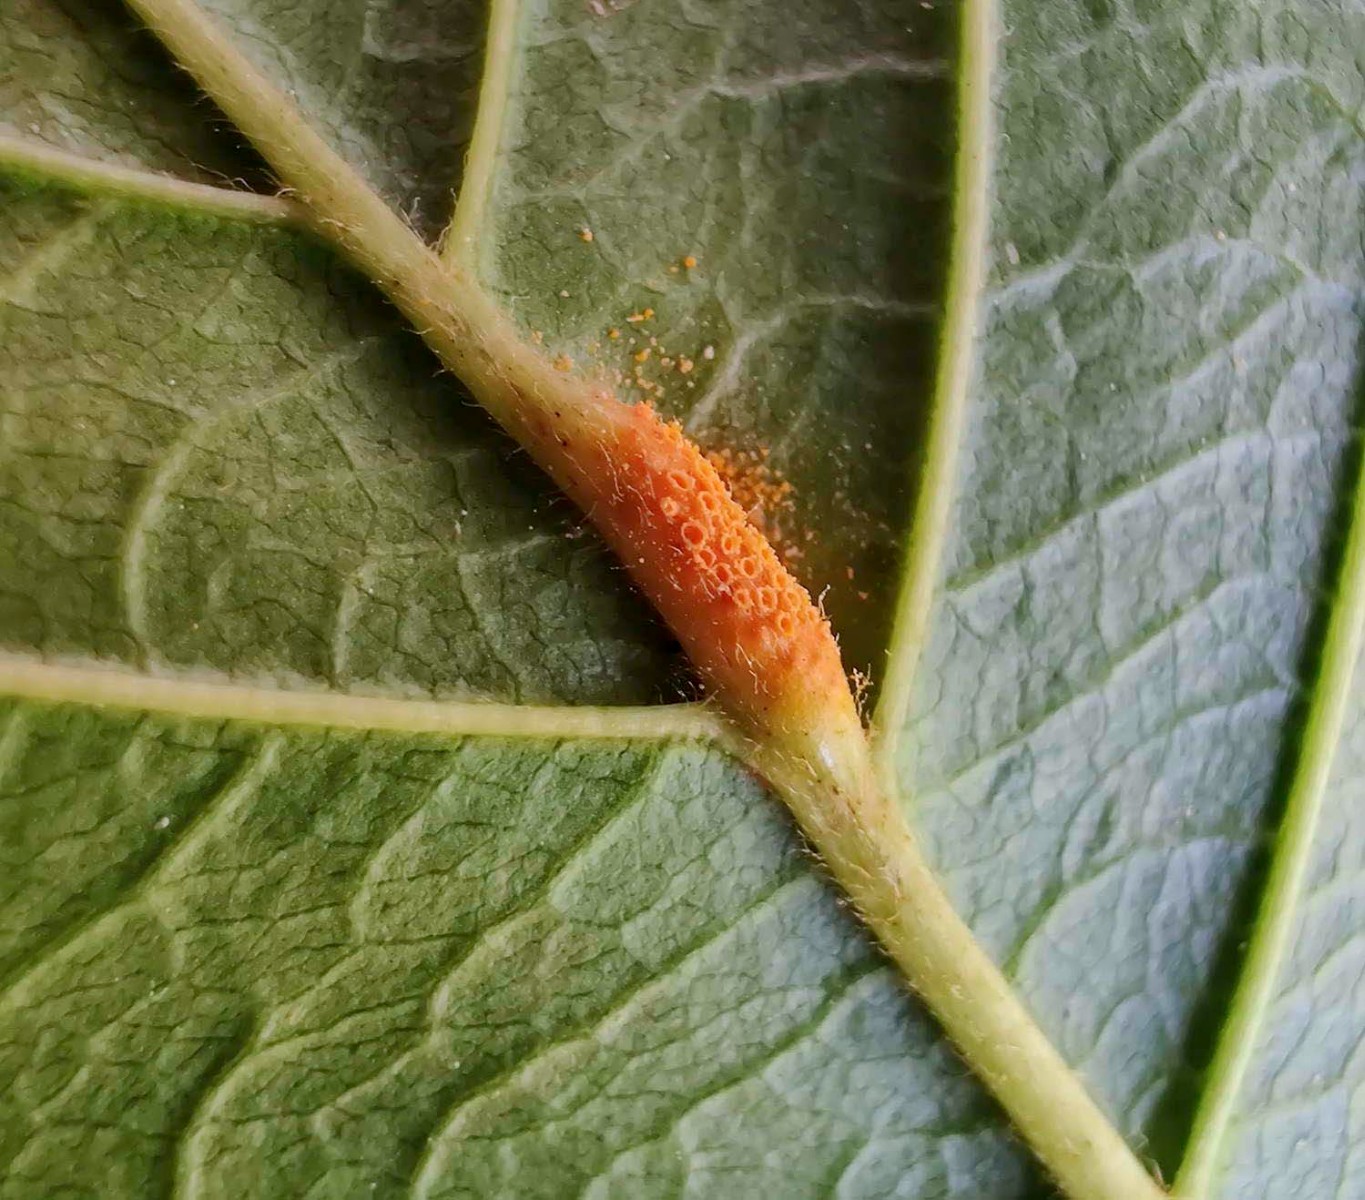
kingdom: Fungi
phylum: Basidiomycota
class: Pucciniomycetes
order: Pucciniales
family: Pucciniaceae
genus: Puccinia
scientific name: Puccinia coronata
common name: Crown rust
